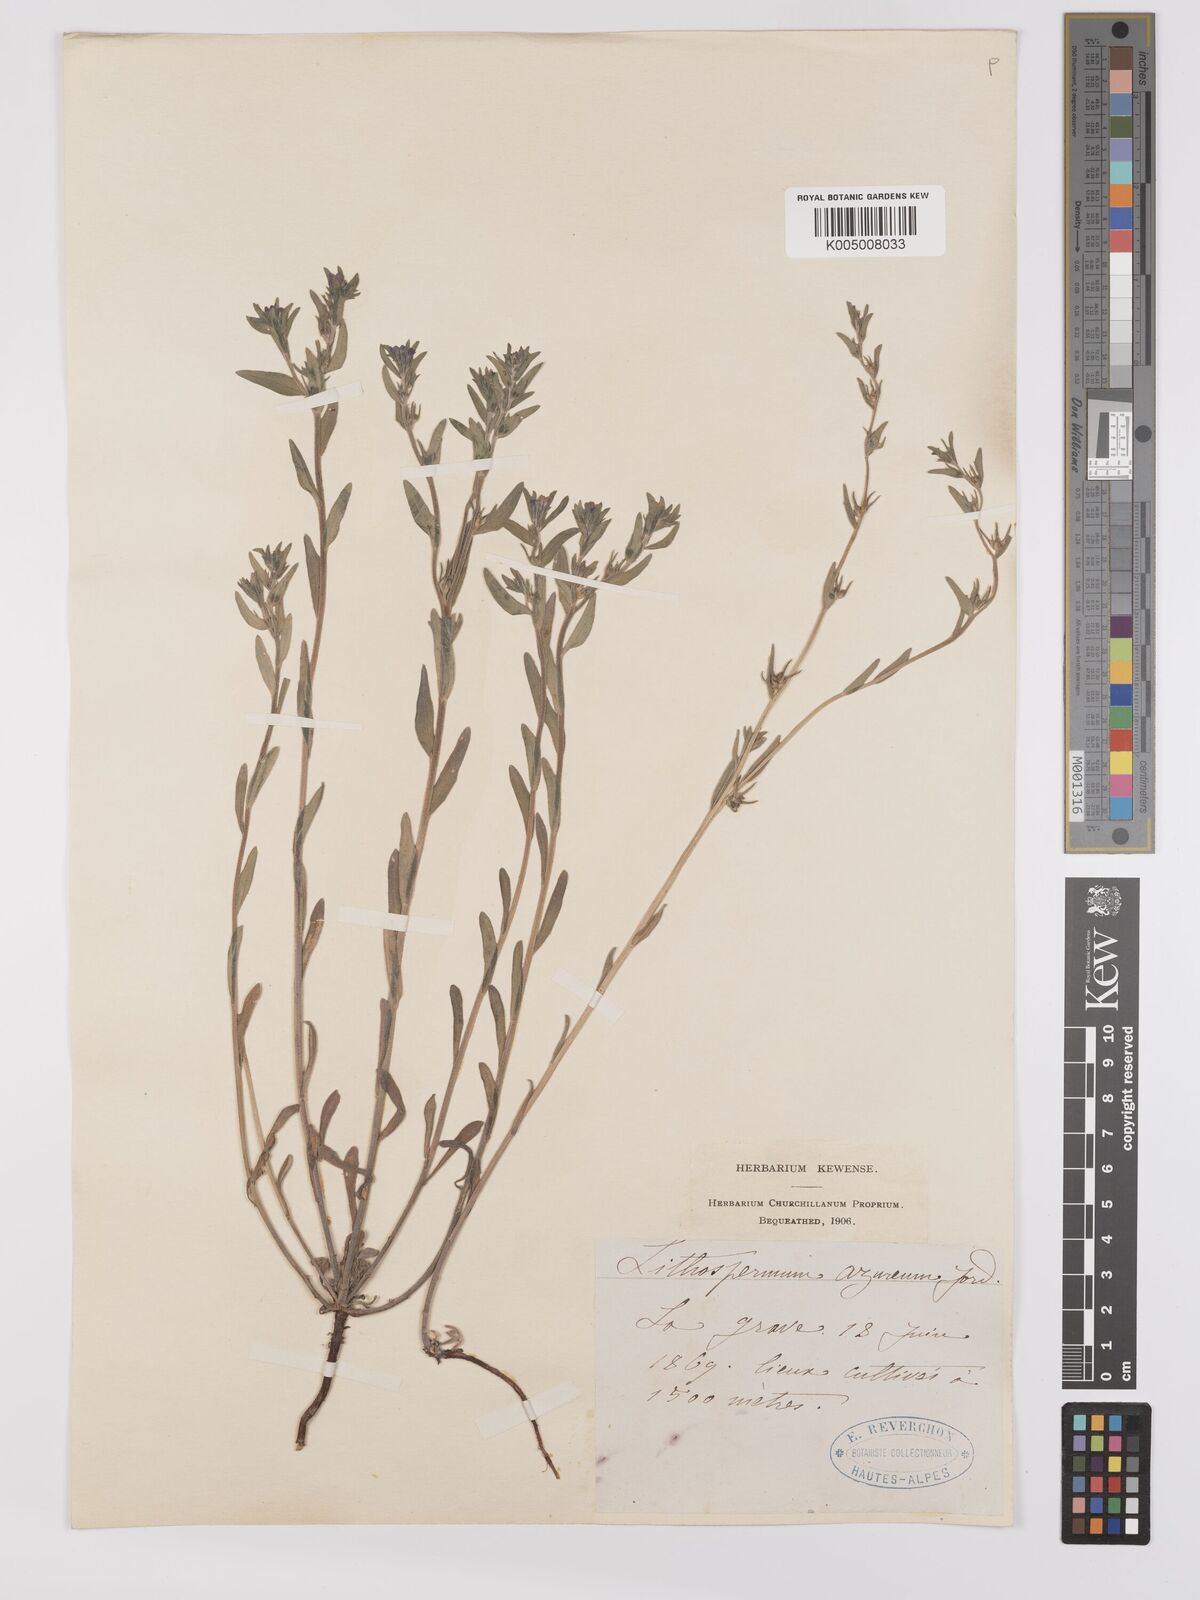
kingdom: Plantae
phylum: Tracheophyta
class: Magnoliopsida
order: Boraginales
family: Boraginaceae
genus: Buglossoides
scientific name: Buglossoides incrassata
